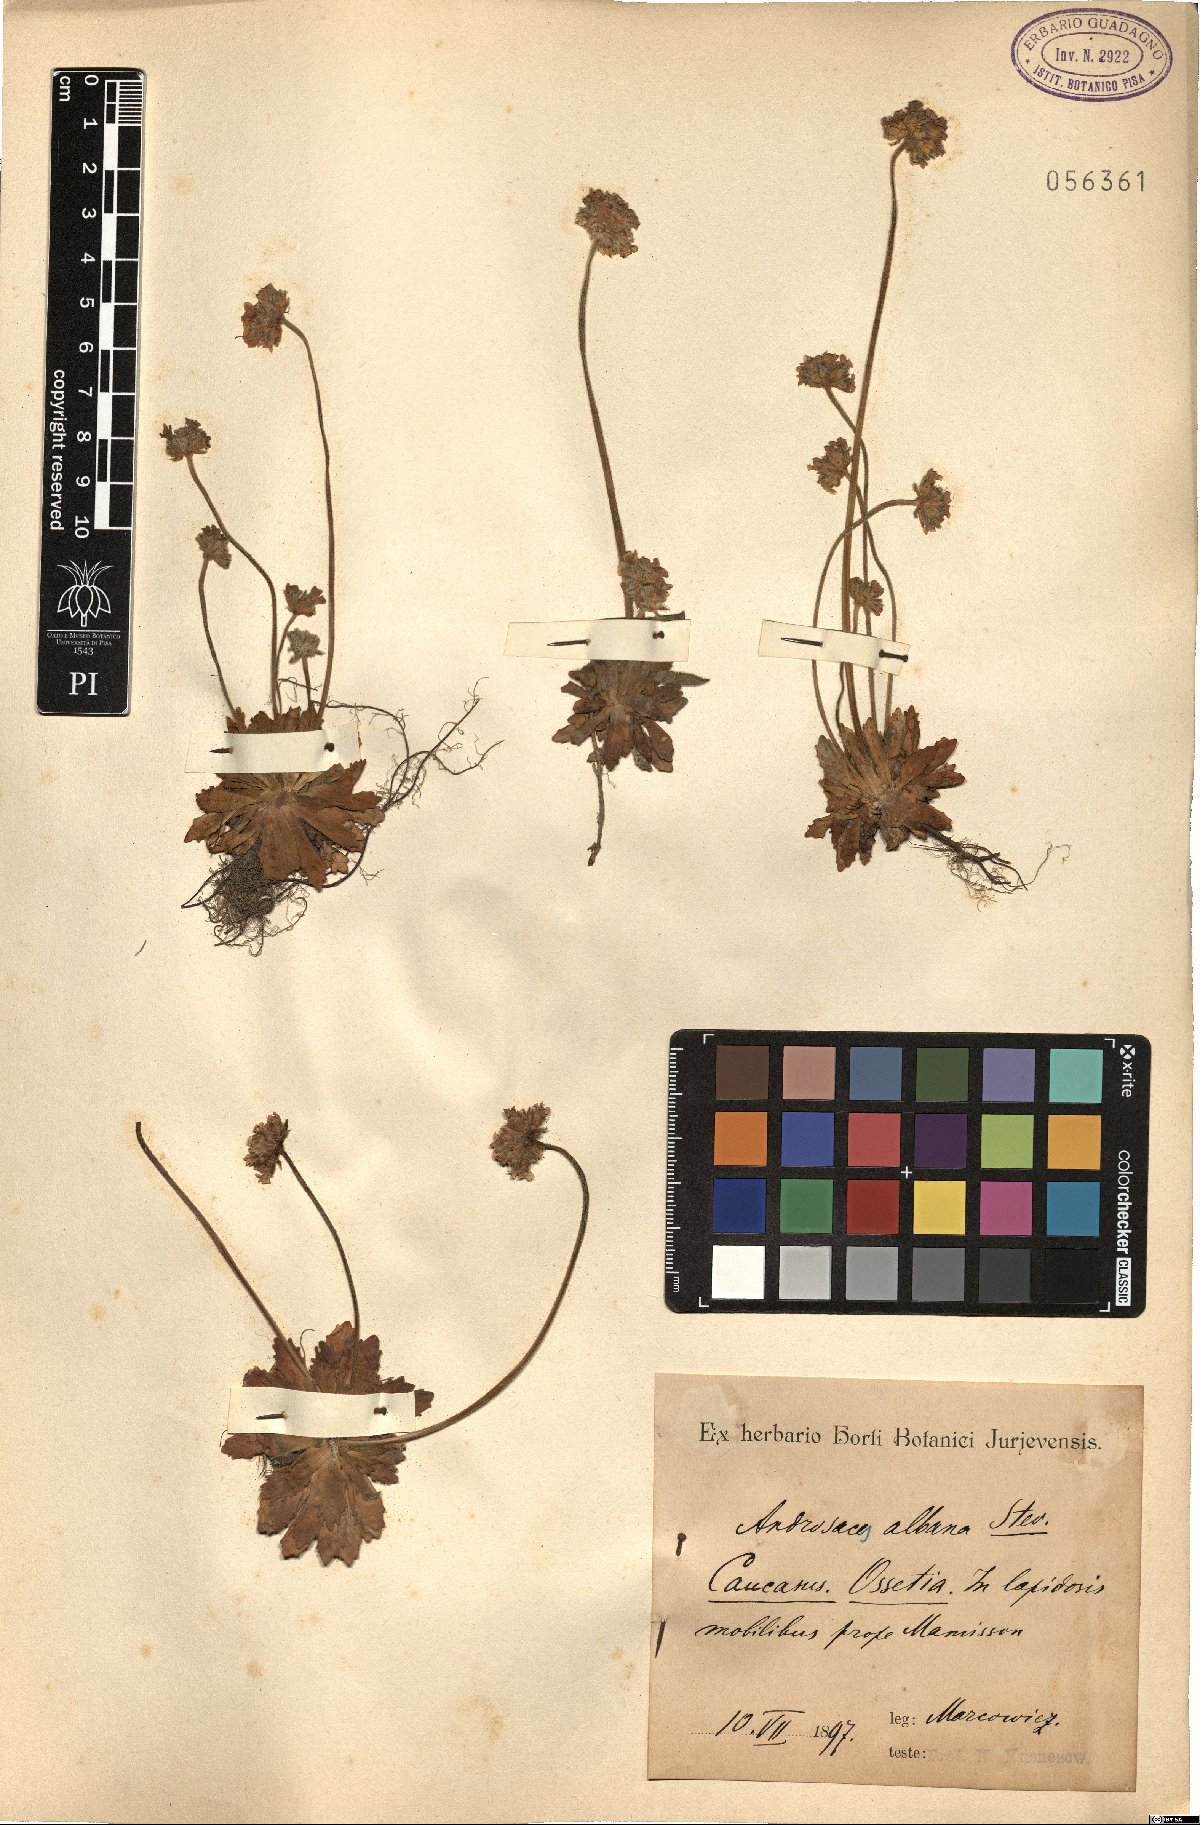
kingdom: Plantae
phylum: Tracheophyta
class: Magnoliopsida
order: Ericales
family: Primulaceae
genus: Androsace
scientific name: Androsace albana
